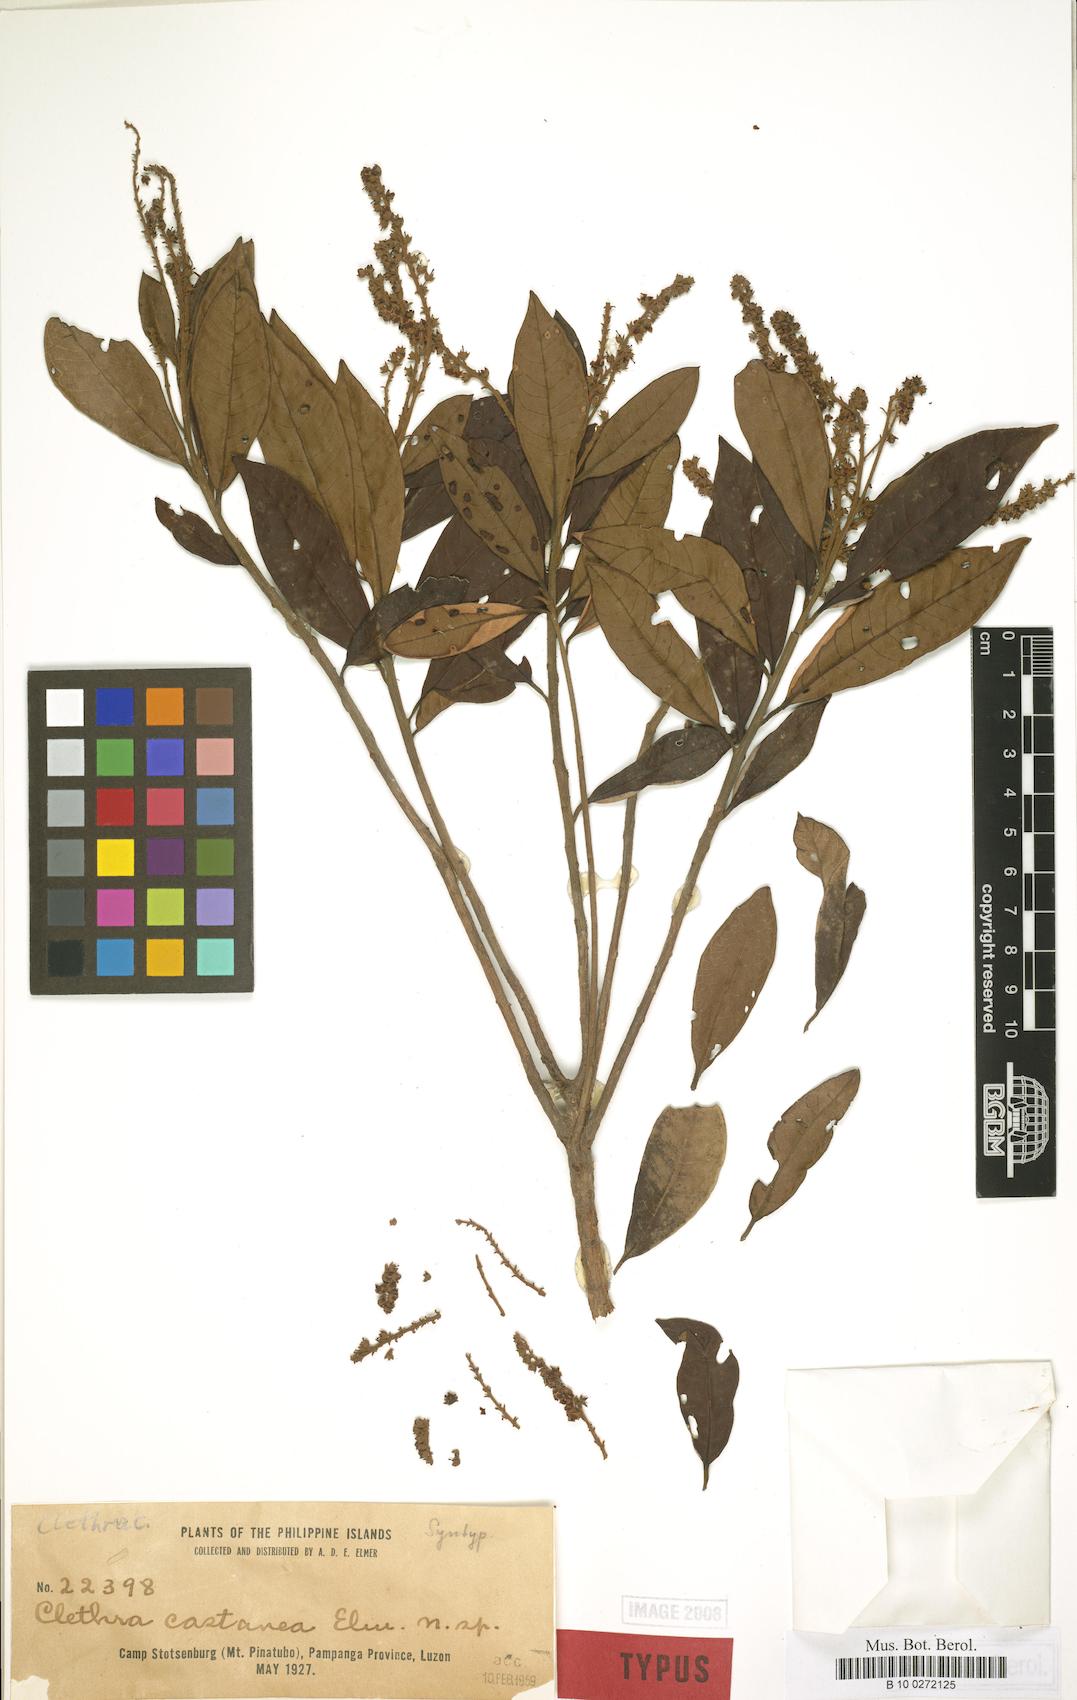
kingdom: Plantae
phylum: Tracheophyta
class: Magnoliopsida
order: Ericales
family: Clethraceae
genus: Clethra
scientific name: Clethra canescens
